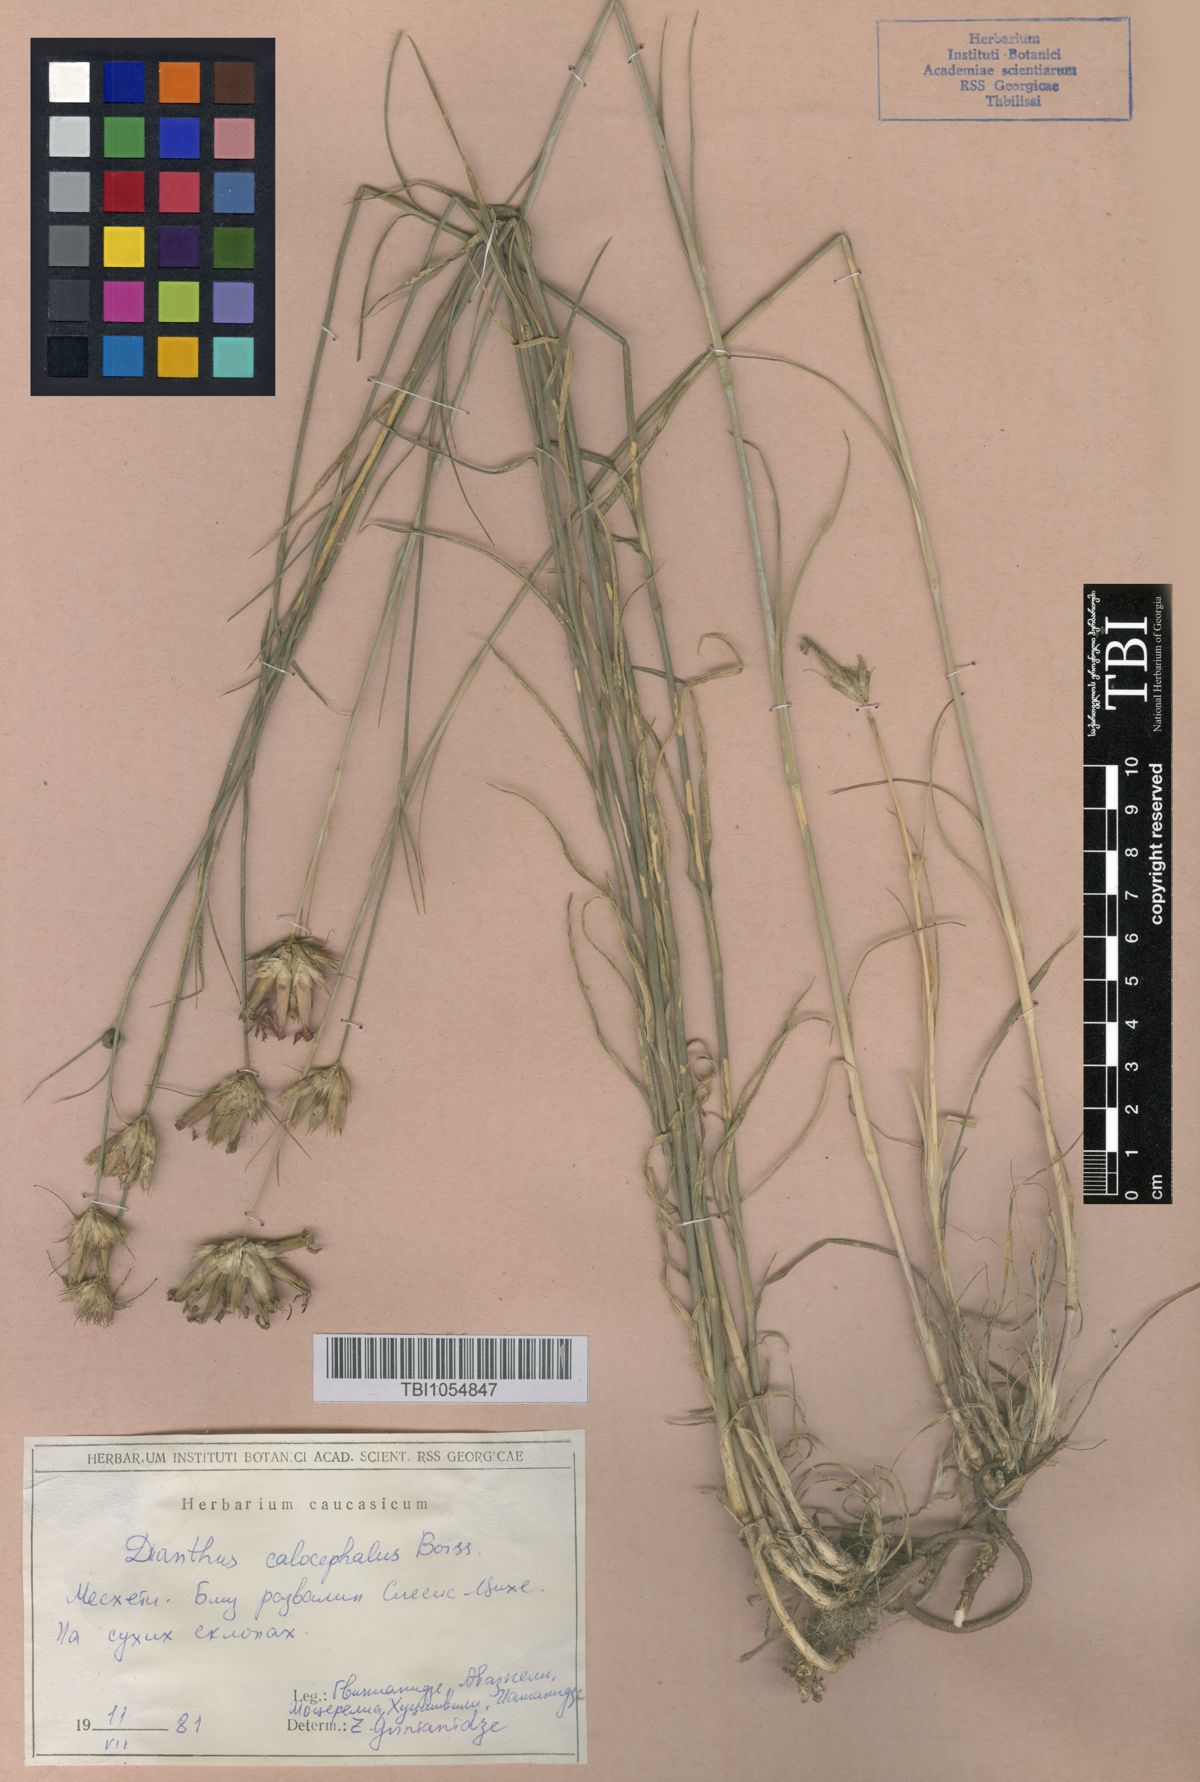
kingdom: Plantae
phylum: Tracheophyta
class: Magnoliopsida
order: Caryophyllales
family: Caryophyllaceae
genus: Dianthus
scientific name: Dianthus cruentus
